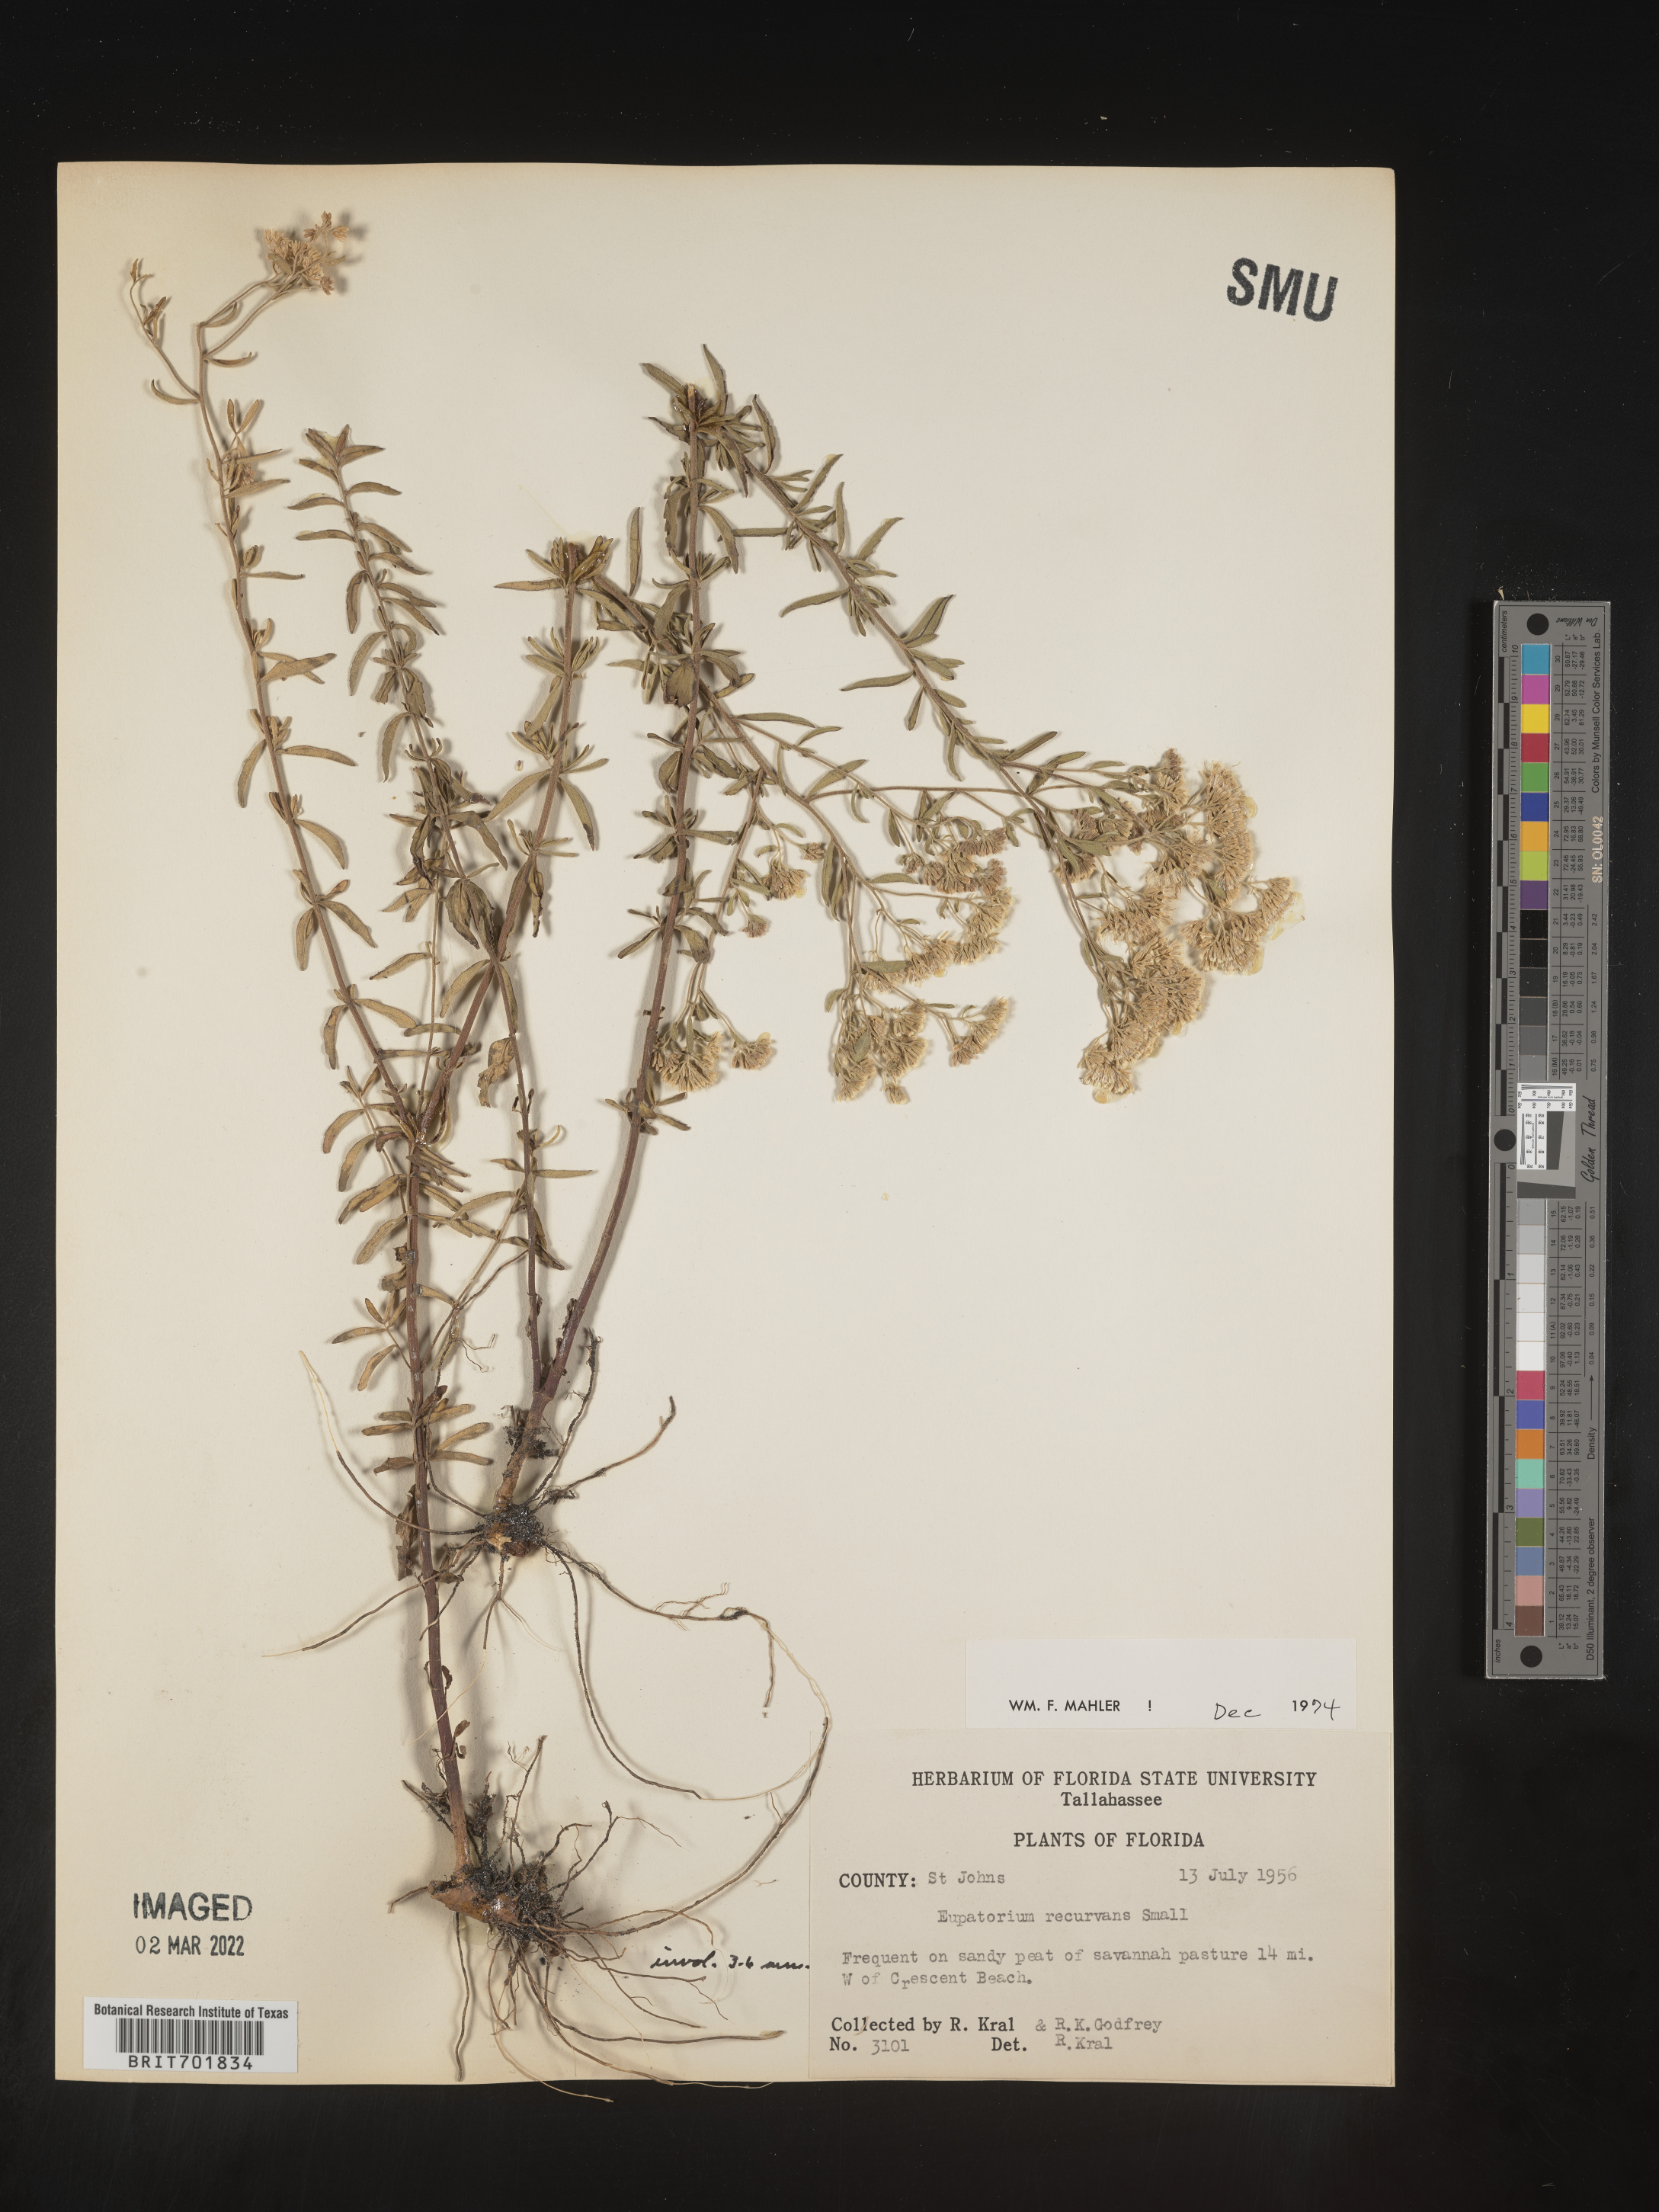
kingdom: Plantae
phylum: Tracheophyta
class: Magnoliopsida
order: Asterales
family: Asteraceae
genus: Eupatorium
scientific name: Eupatorium mohrii
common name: Mohr's thoroughwort
